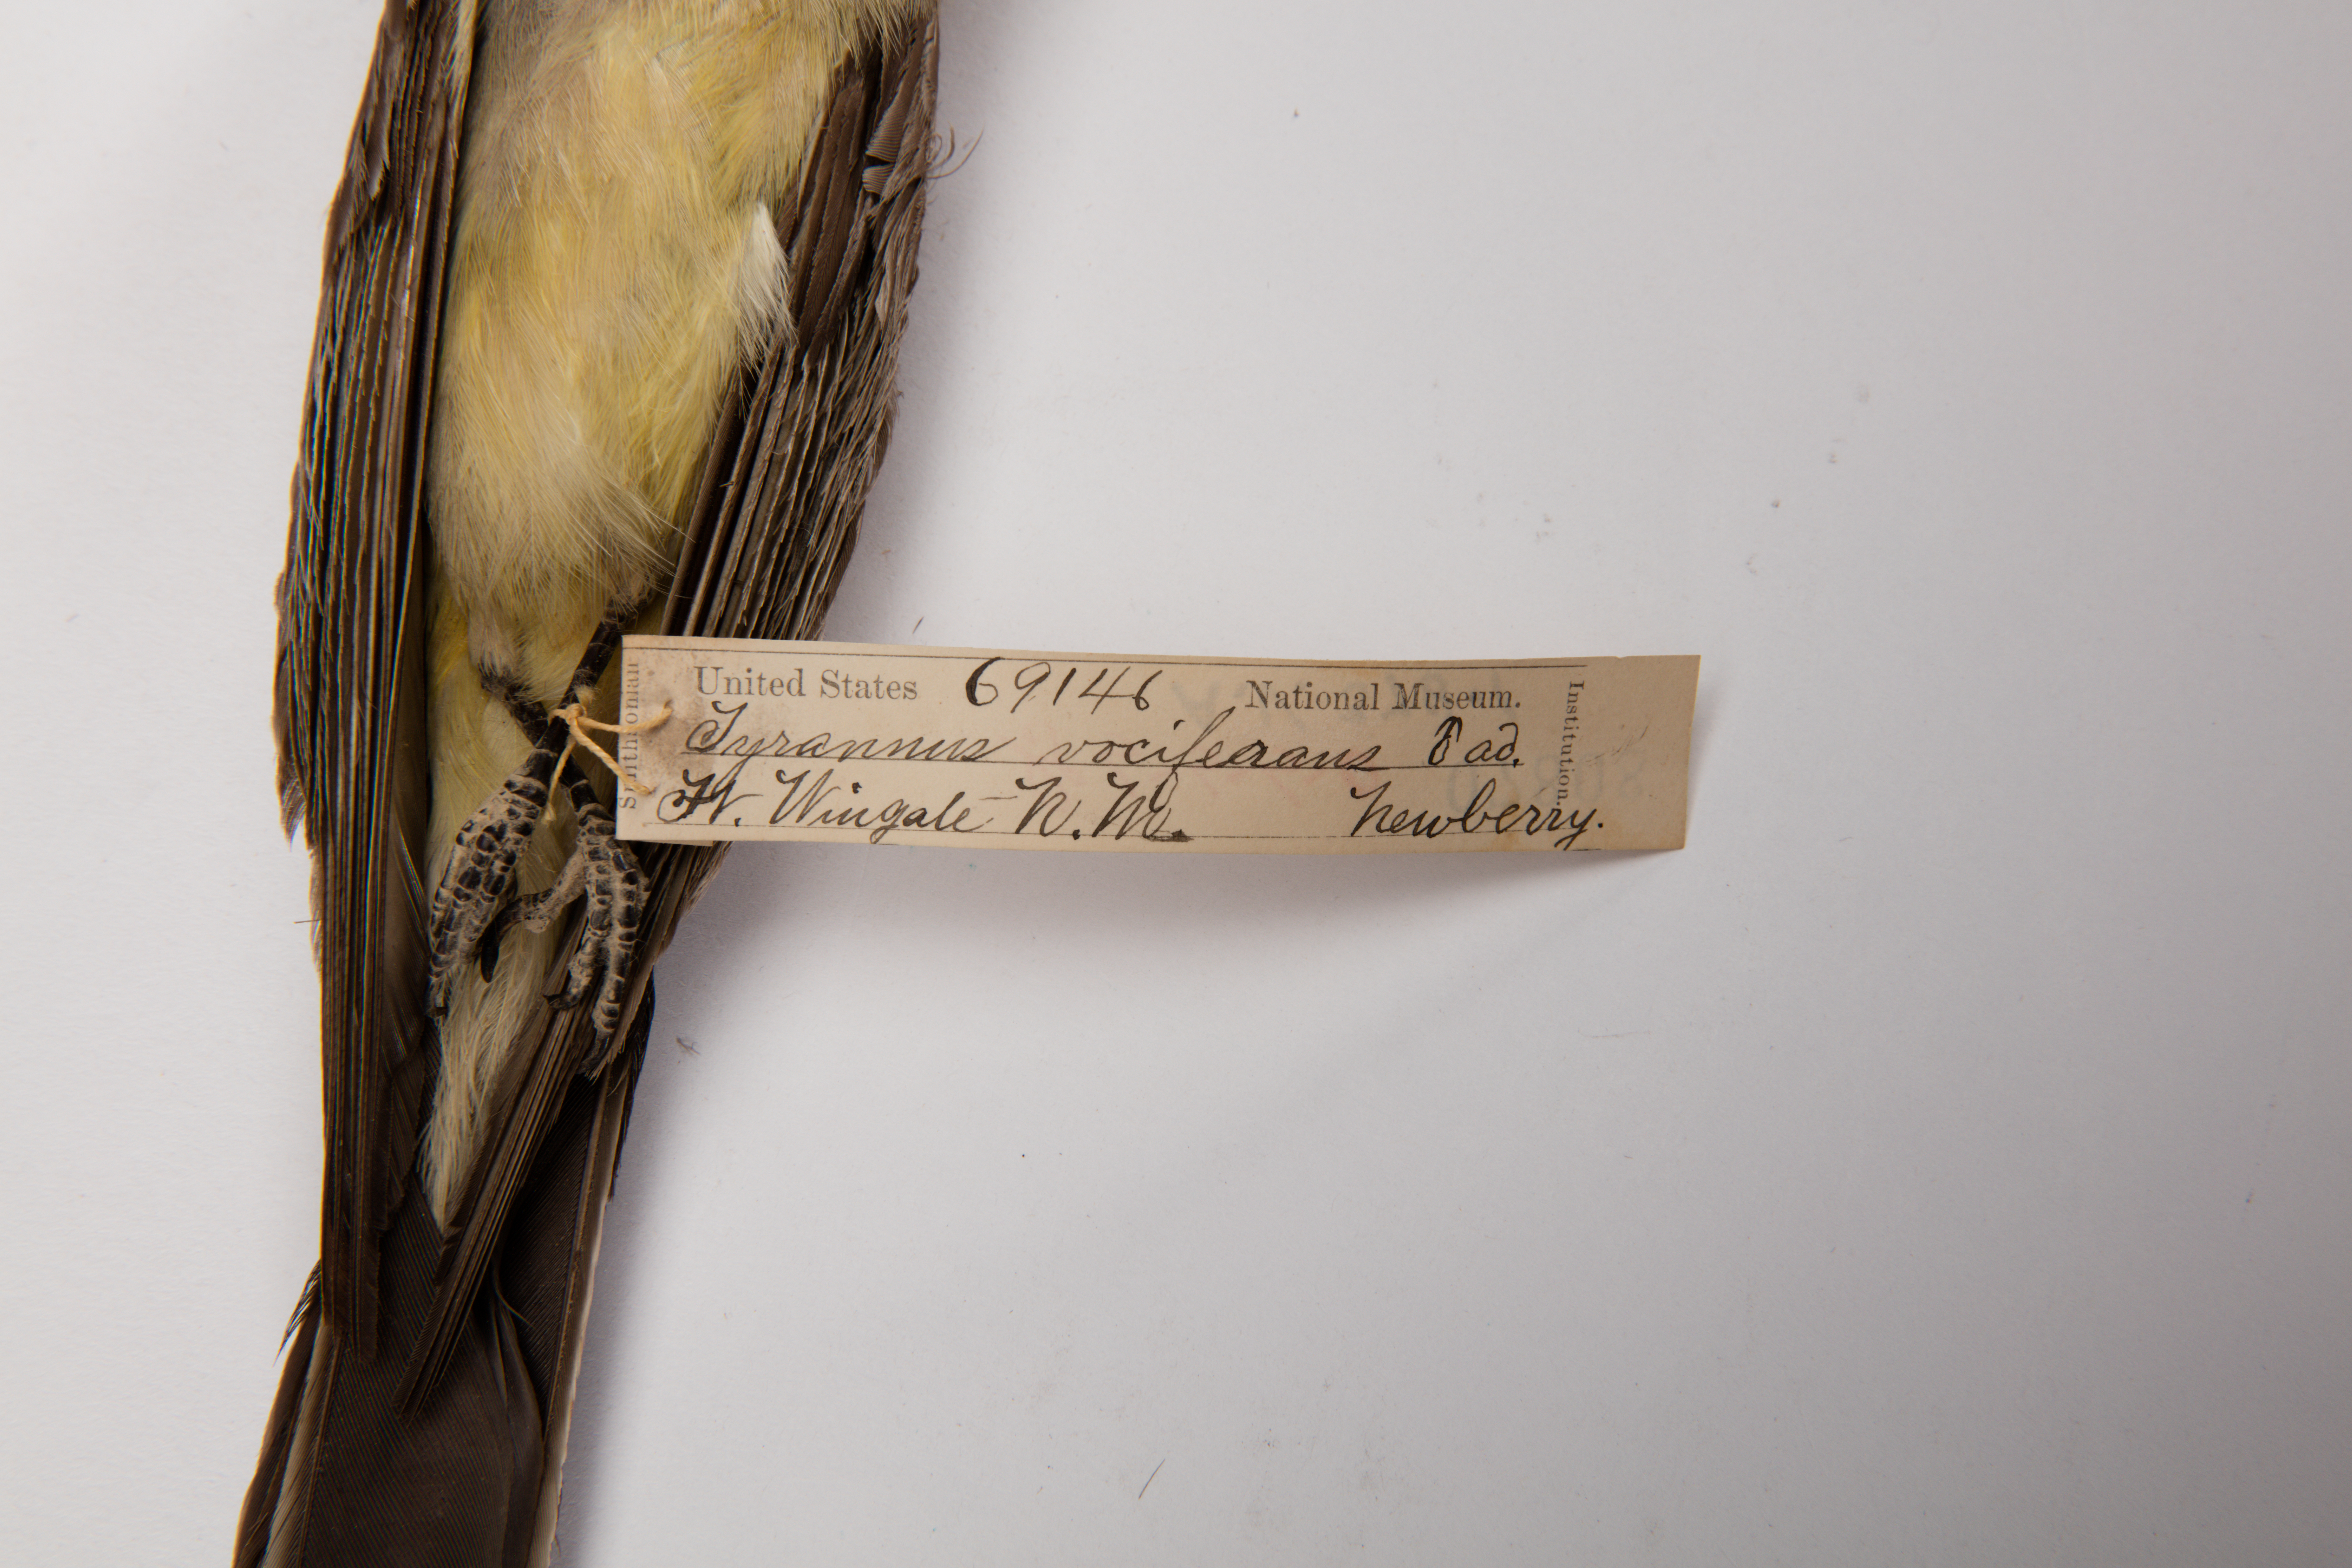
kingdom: Animalia
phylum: Chordata
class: Aves
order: Passeriformes
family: Tyrannidae
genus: Tyrannus
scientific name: Tyrannus vociferans
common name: Cassin's kingbird
